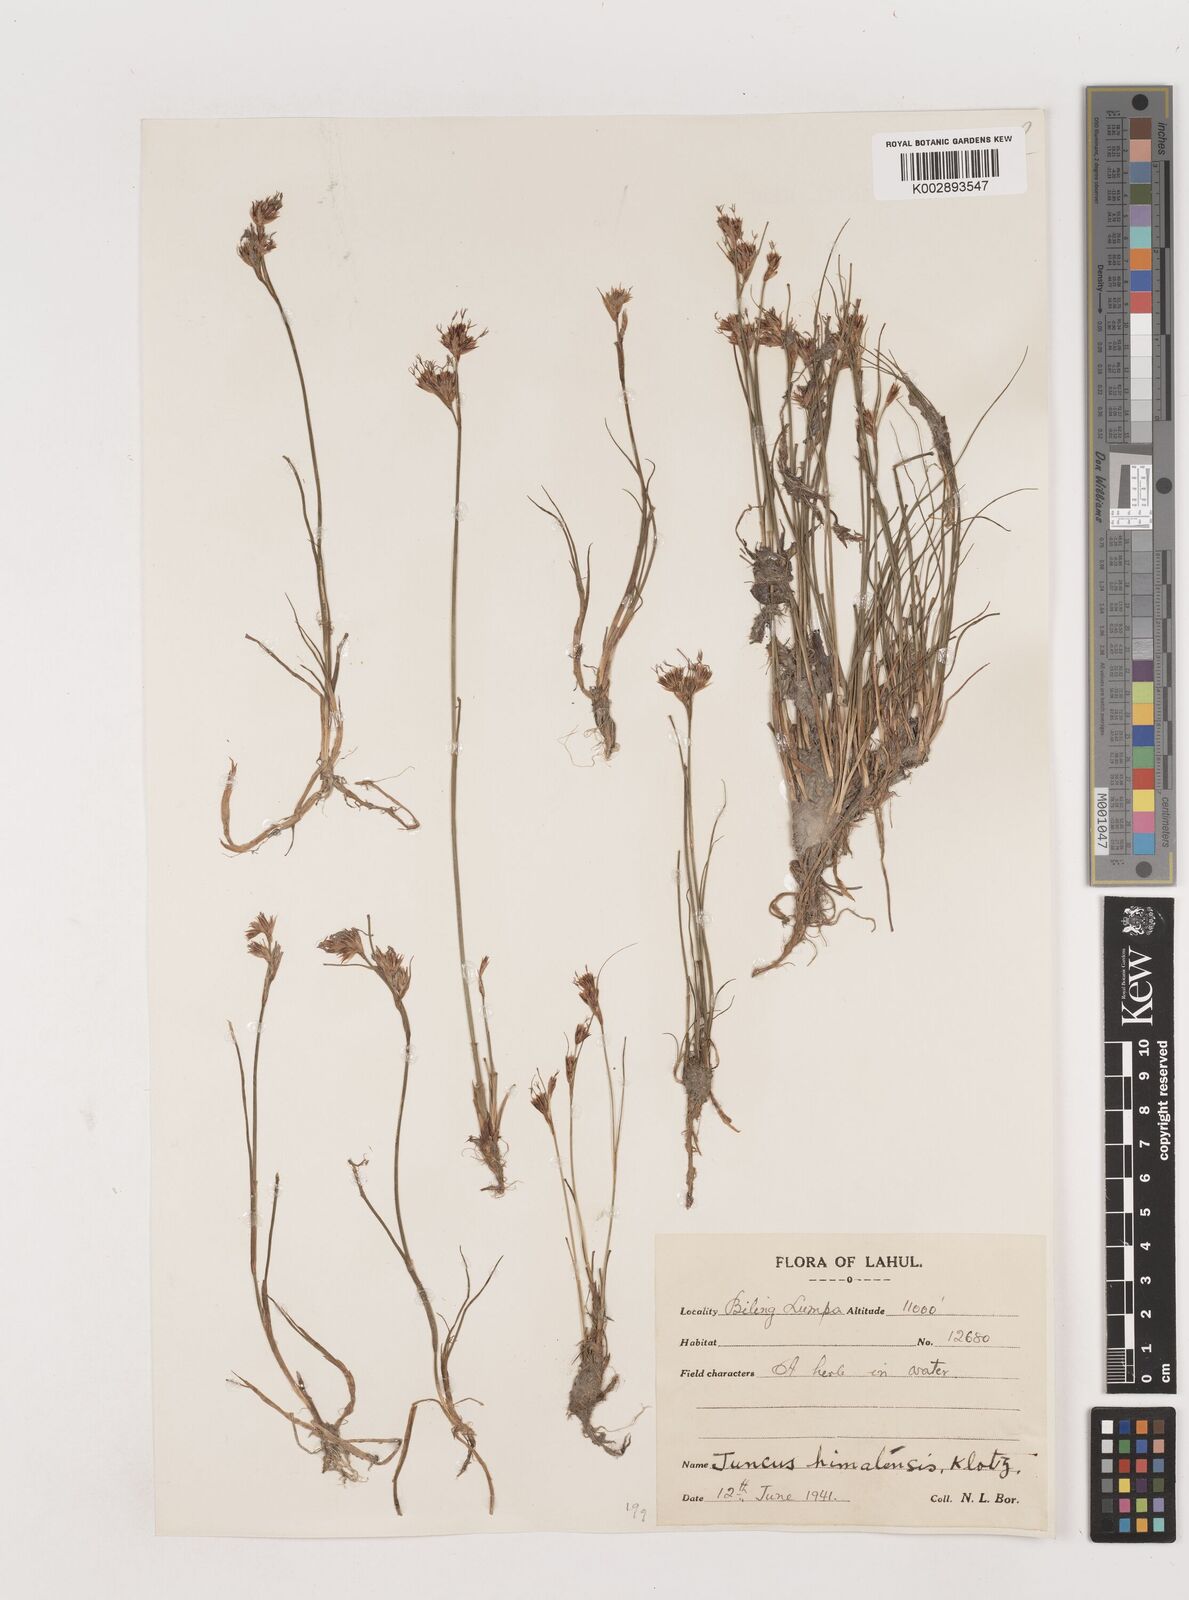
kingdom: Plantae
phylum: Tracheophyta
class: Liliopsida
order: Poales
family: Juncaceae
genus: Juncus
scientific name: Juncus himalensis
